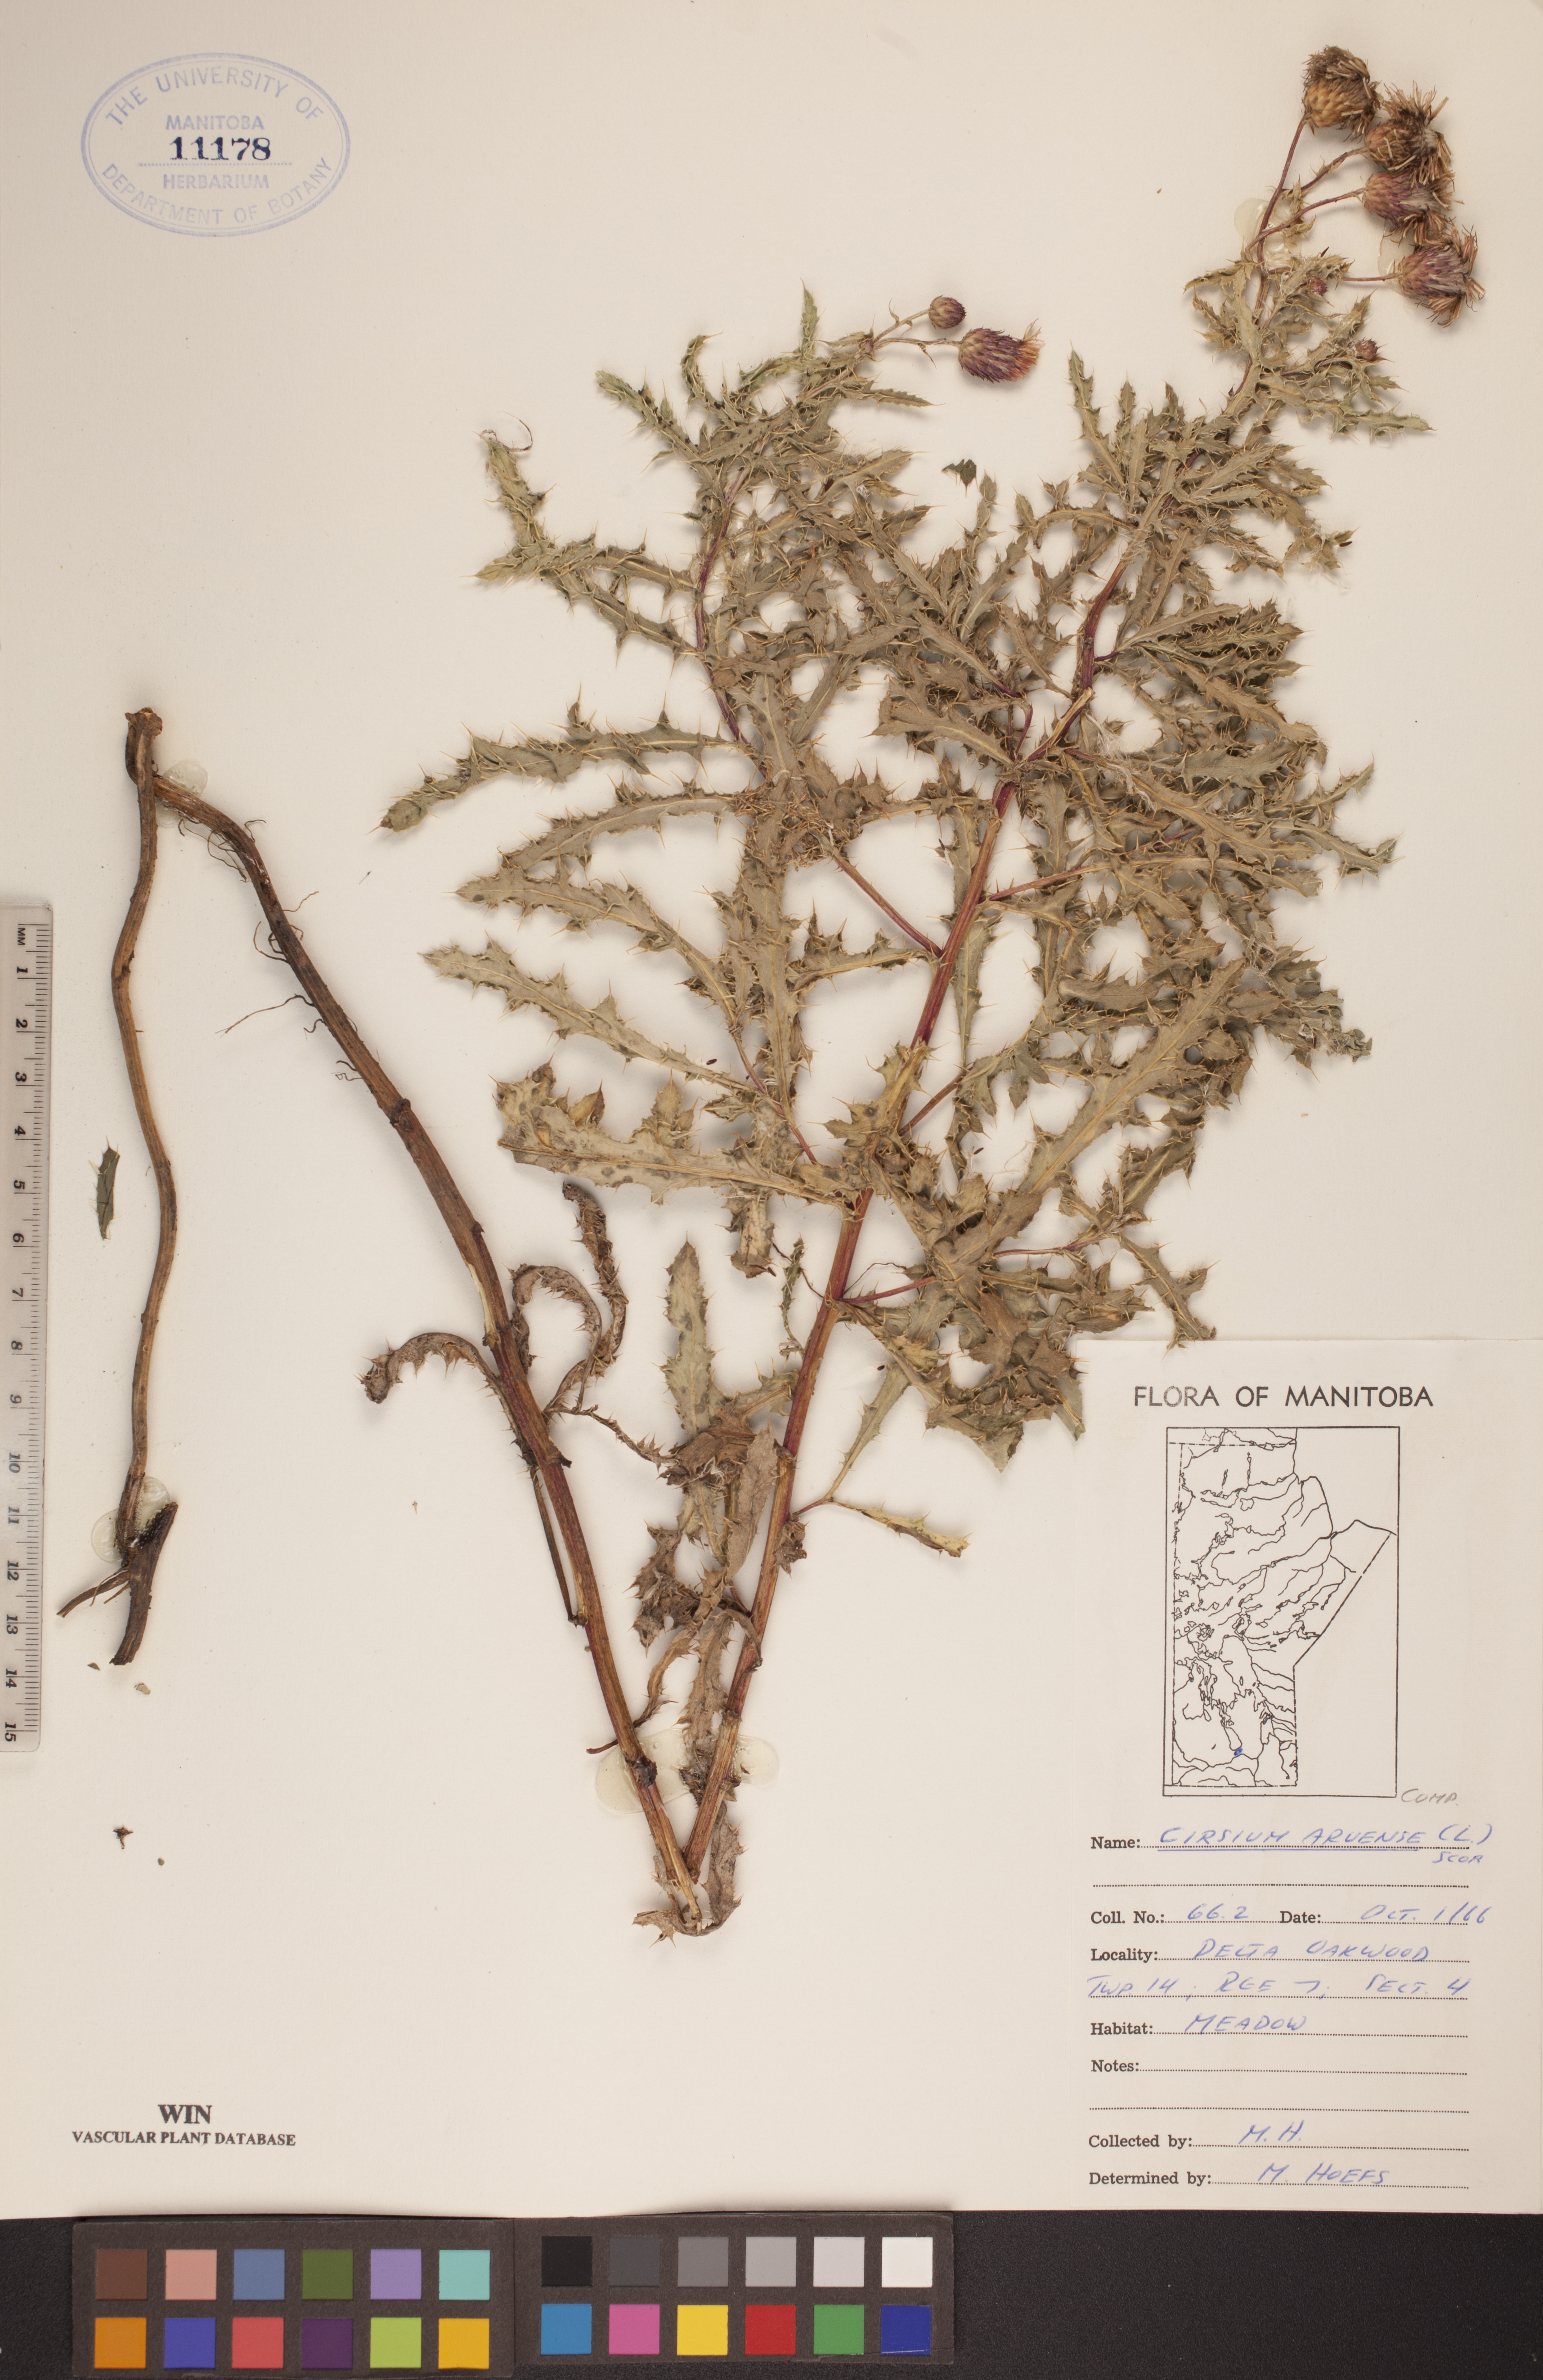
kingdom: Plantae
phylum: Tracheophyta
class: Magnoliopsida
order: Asterales
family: Asteraceae
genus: Cirsium
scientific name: Cirsium arvense
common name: Creeping thistle
